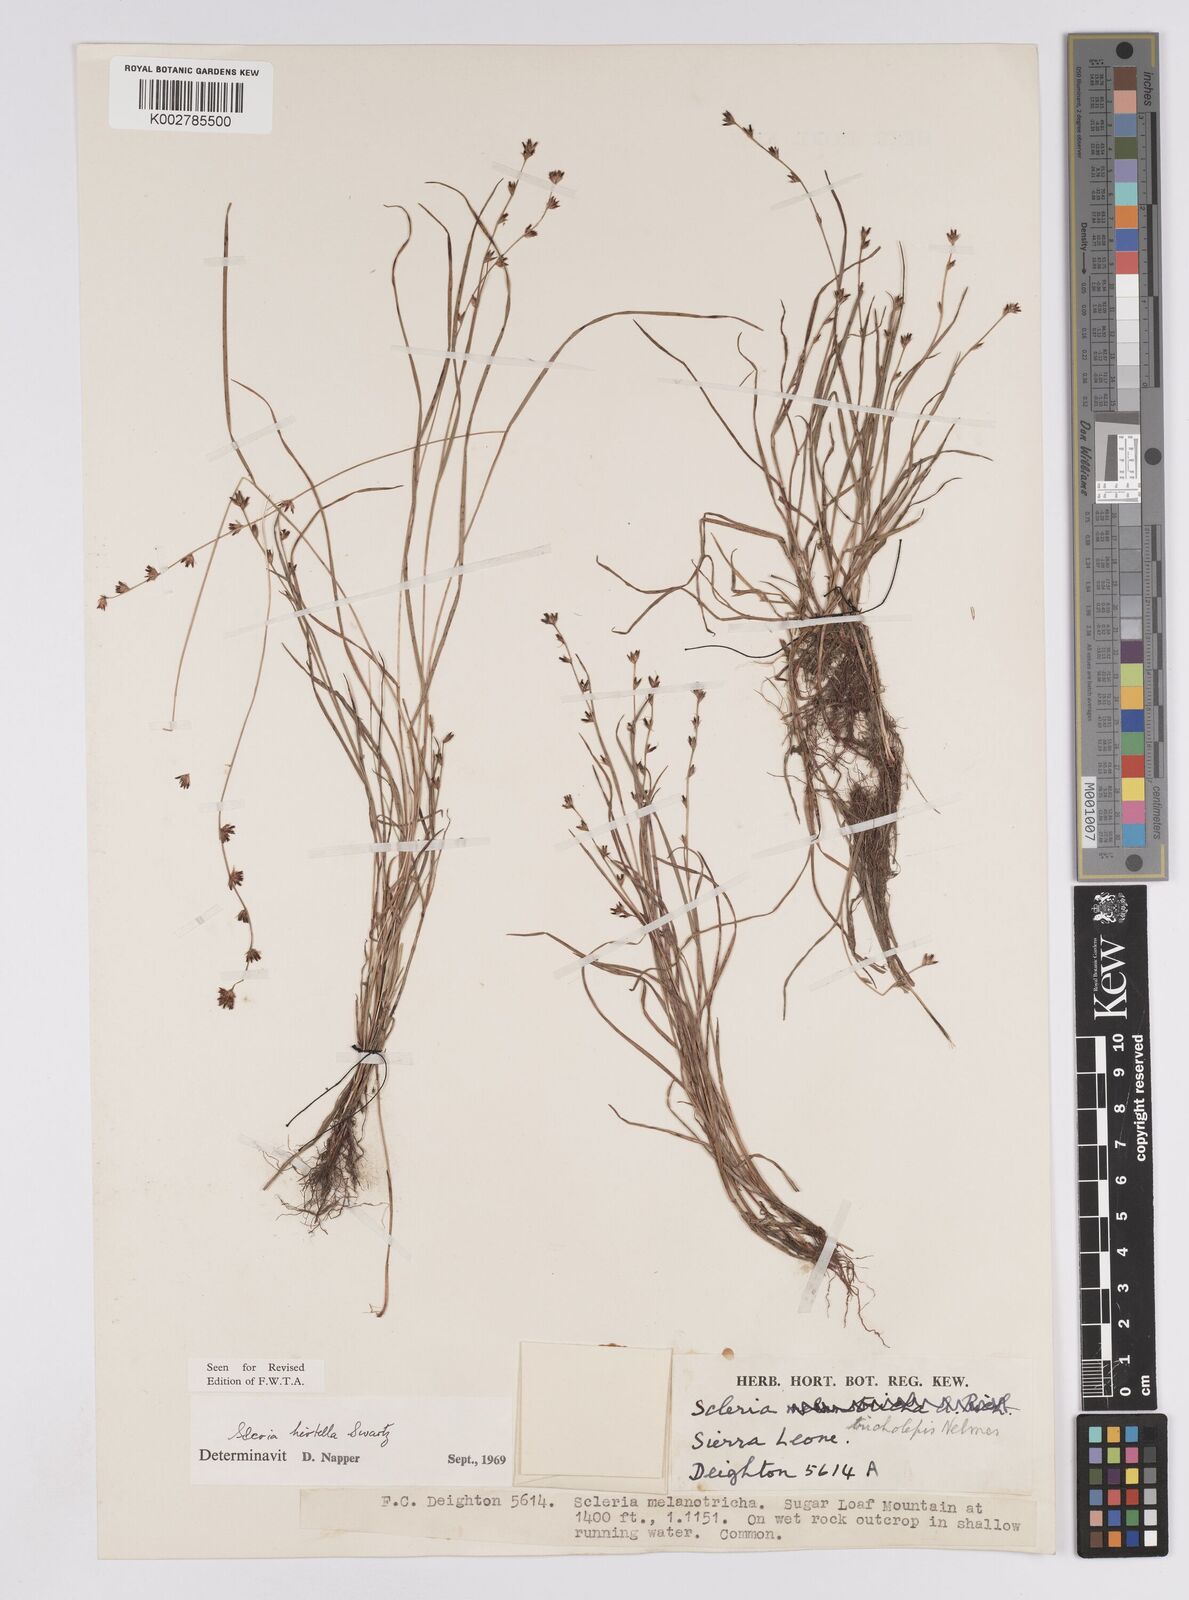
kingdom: Plantae
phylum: Tracheophyta
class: Liliopsida
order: Poales
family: Cyperaceae
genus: Scleria
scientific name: Scleria tricholepis
